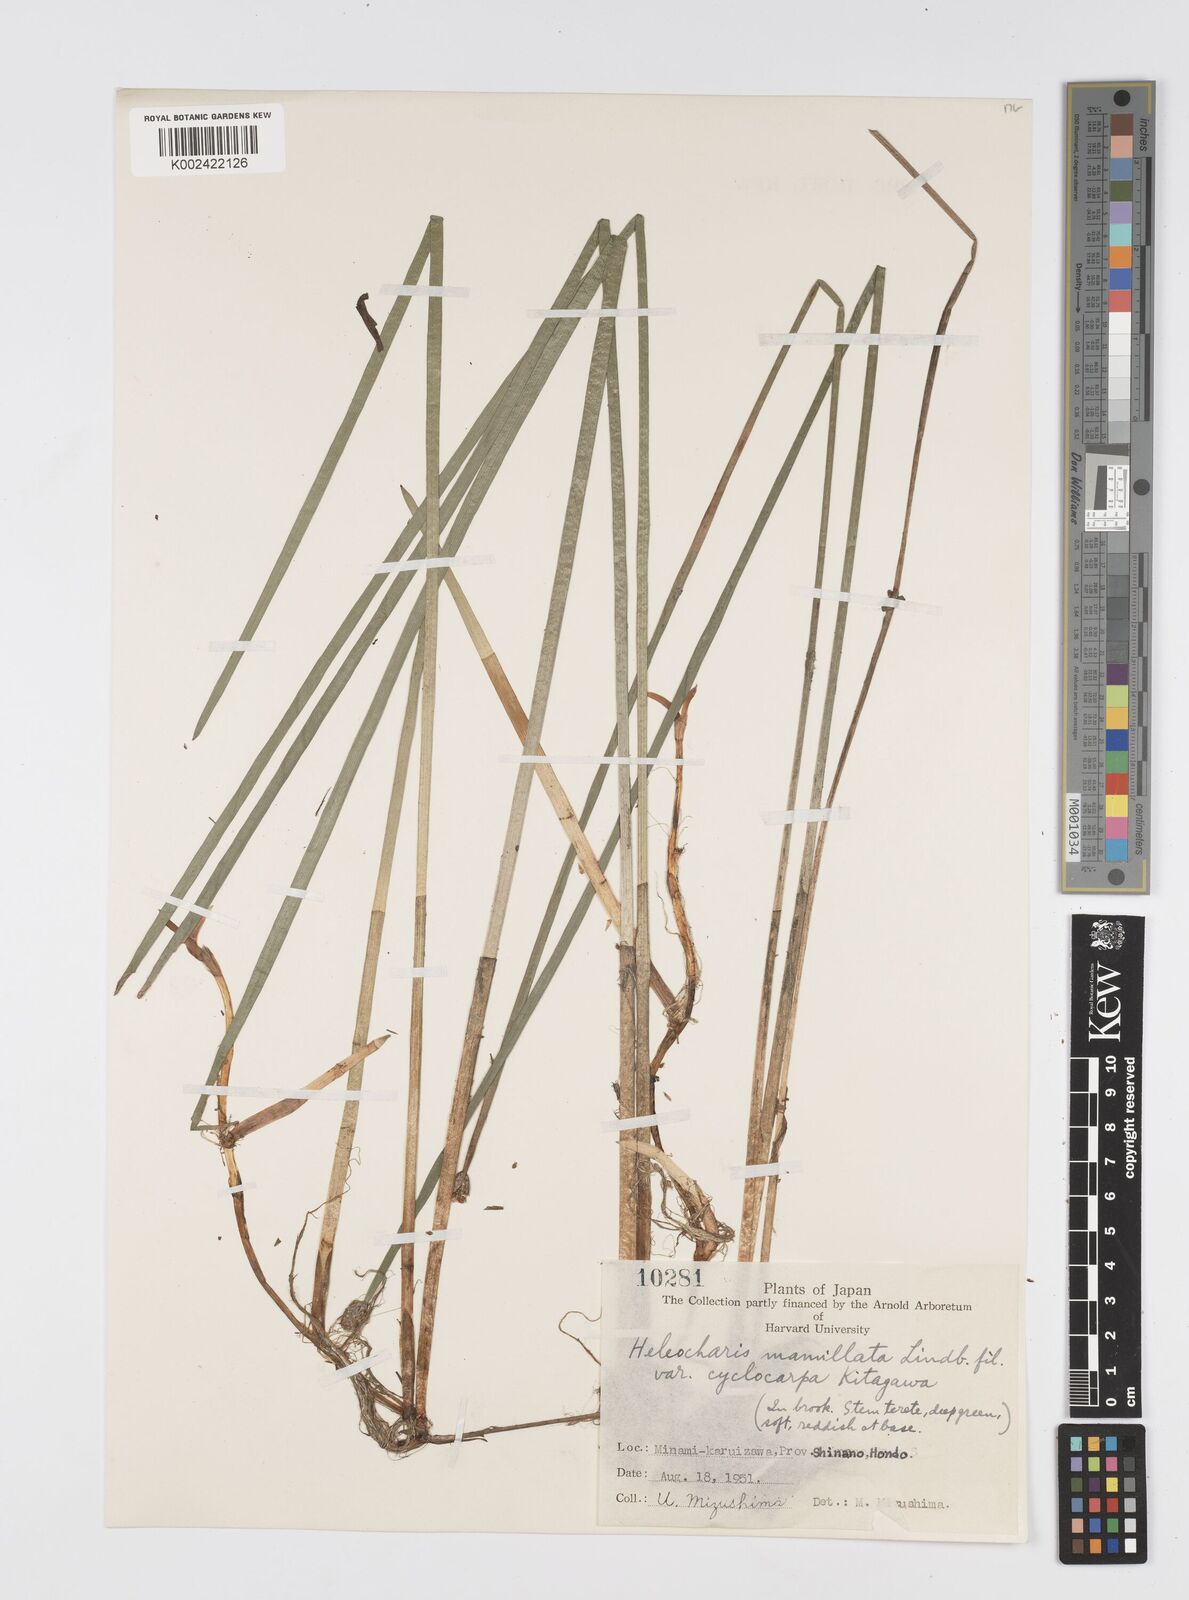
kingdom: Plantae
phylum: Tracheophyta
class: Liliopsida
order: Poales
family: Cyperaceae
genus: Eleocharis
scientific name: Eleocharis mamillata
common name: Northern spike-rush
